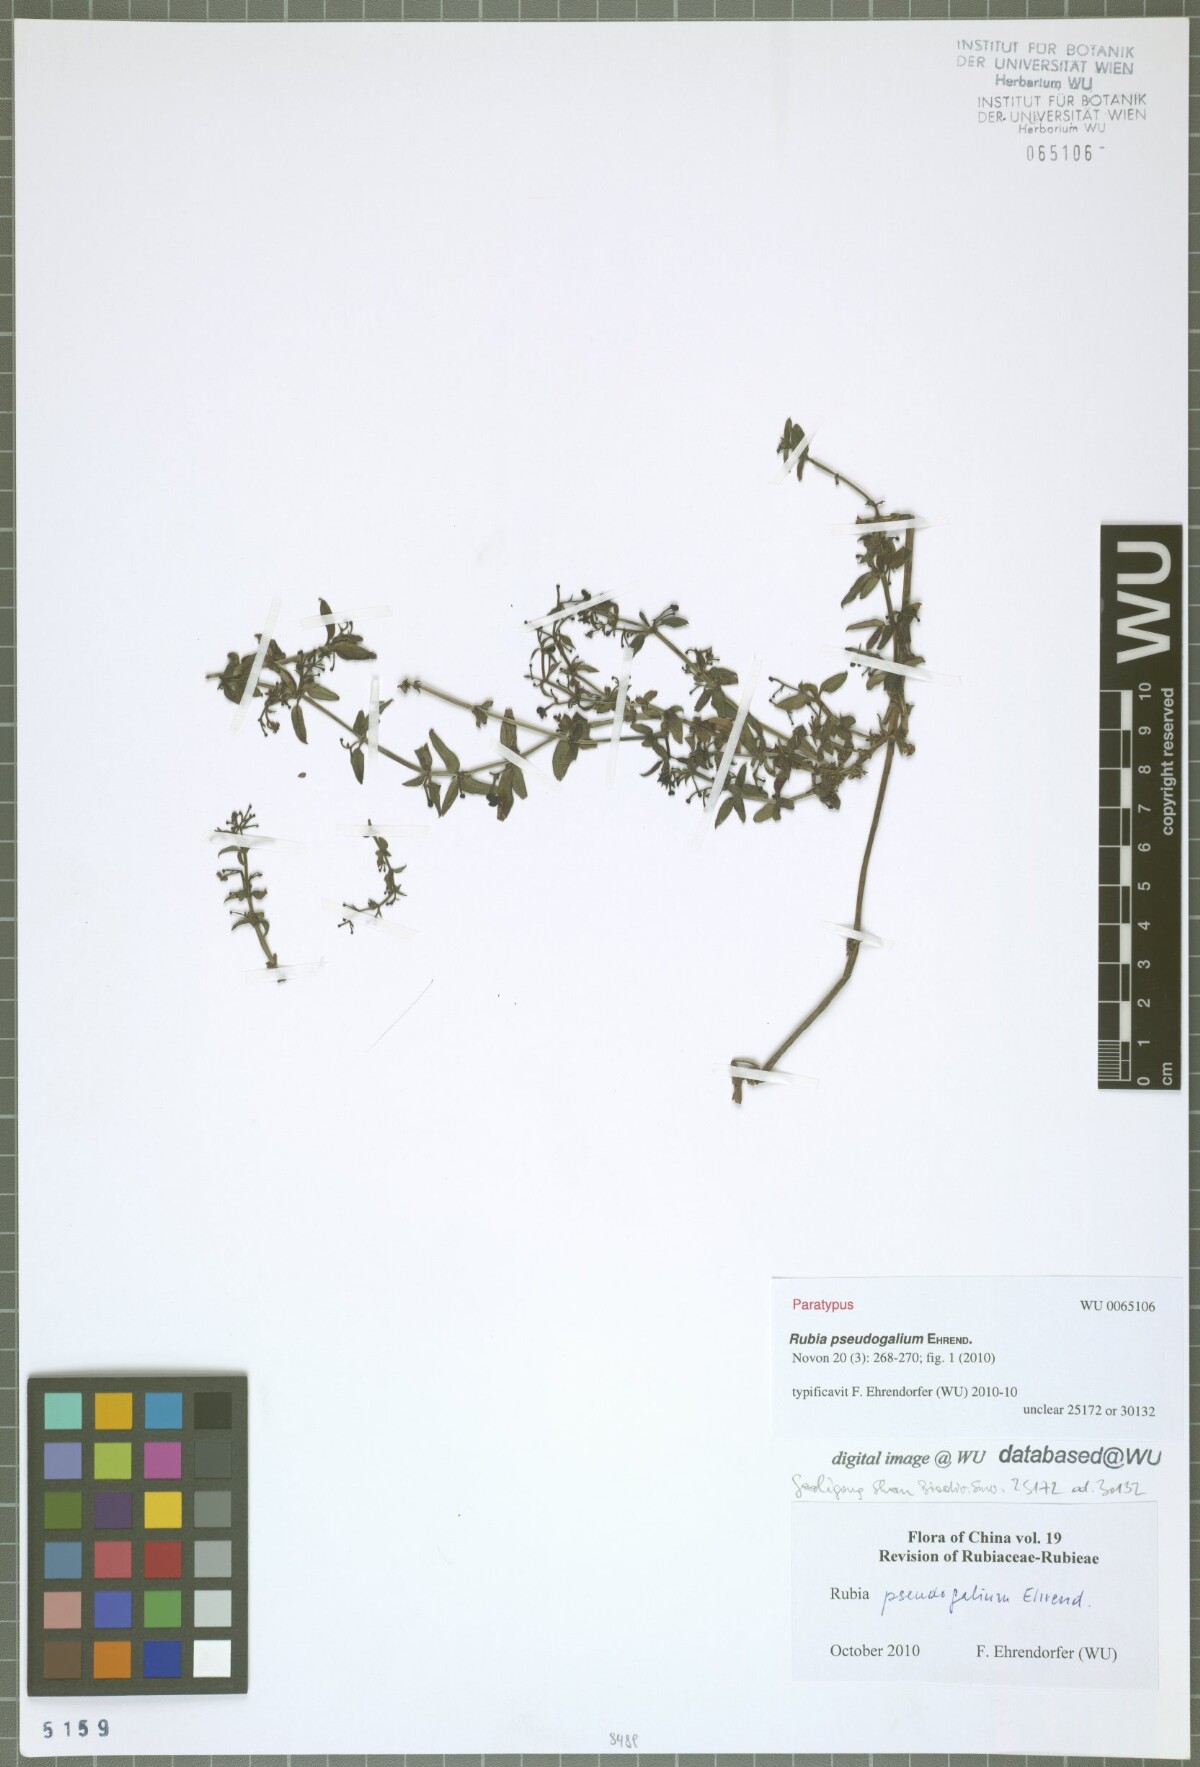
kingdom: Plantae
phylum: Tracheophyta
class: Magnoliopsida
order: Gentianales
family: Rubiaceae
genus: Rubia
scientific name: Rubia pseudogalium
